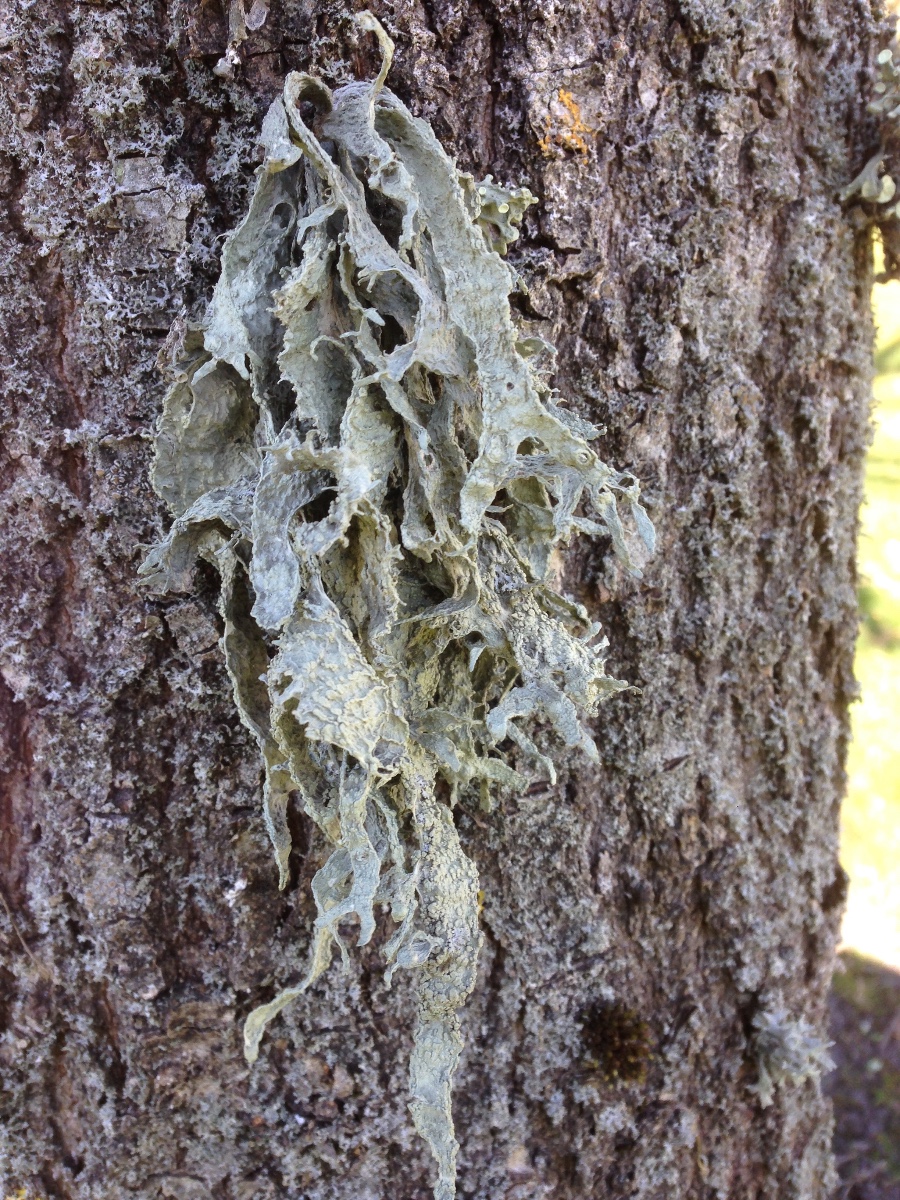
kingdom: Fungi
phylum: Ascomycota
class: Lecanoromycetes
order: Lecanorales
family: Ramalinaceae
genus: Ramalina
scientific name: Ramalina fraxinea
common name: stor grenlav
